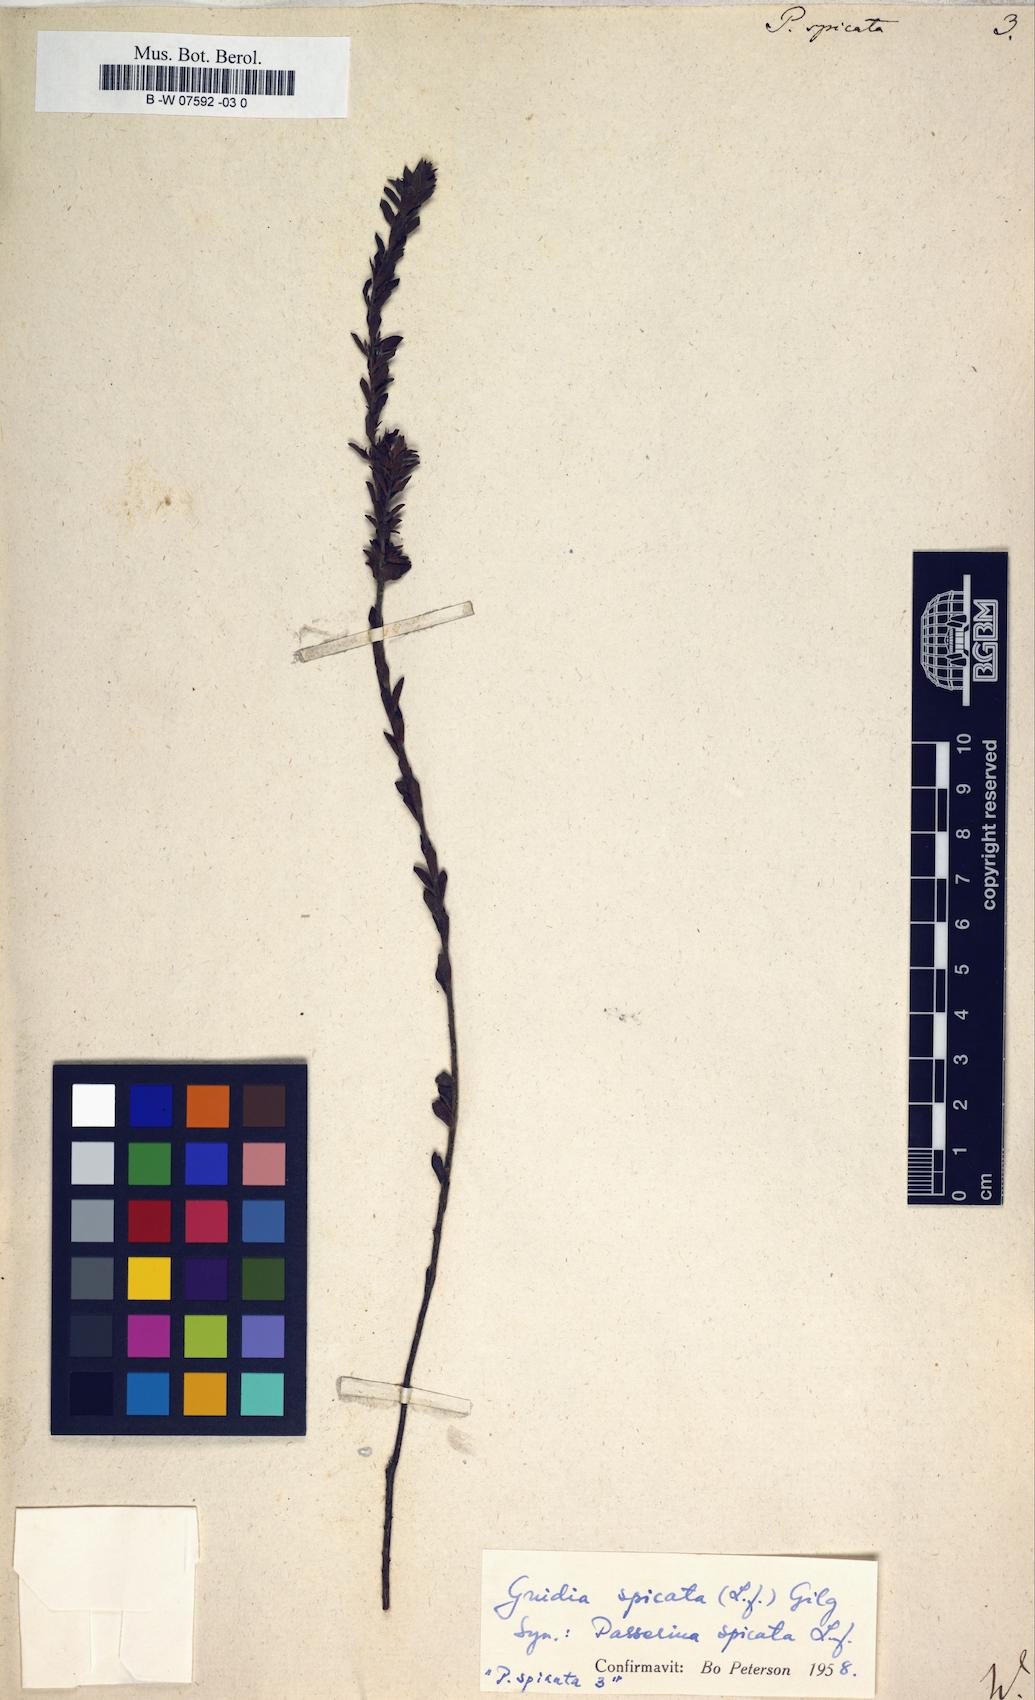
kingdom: Plantae
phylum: Tracheophyta
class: Magnoliopsida
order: Malvales
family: Thymelaeaceae
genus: Gnidia
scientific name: Gnidia spicata
